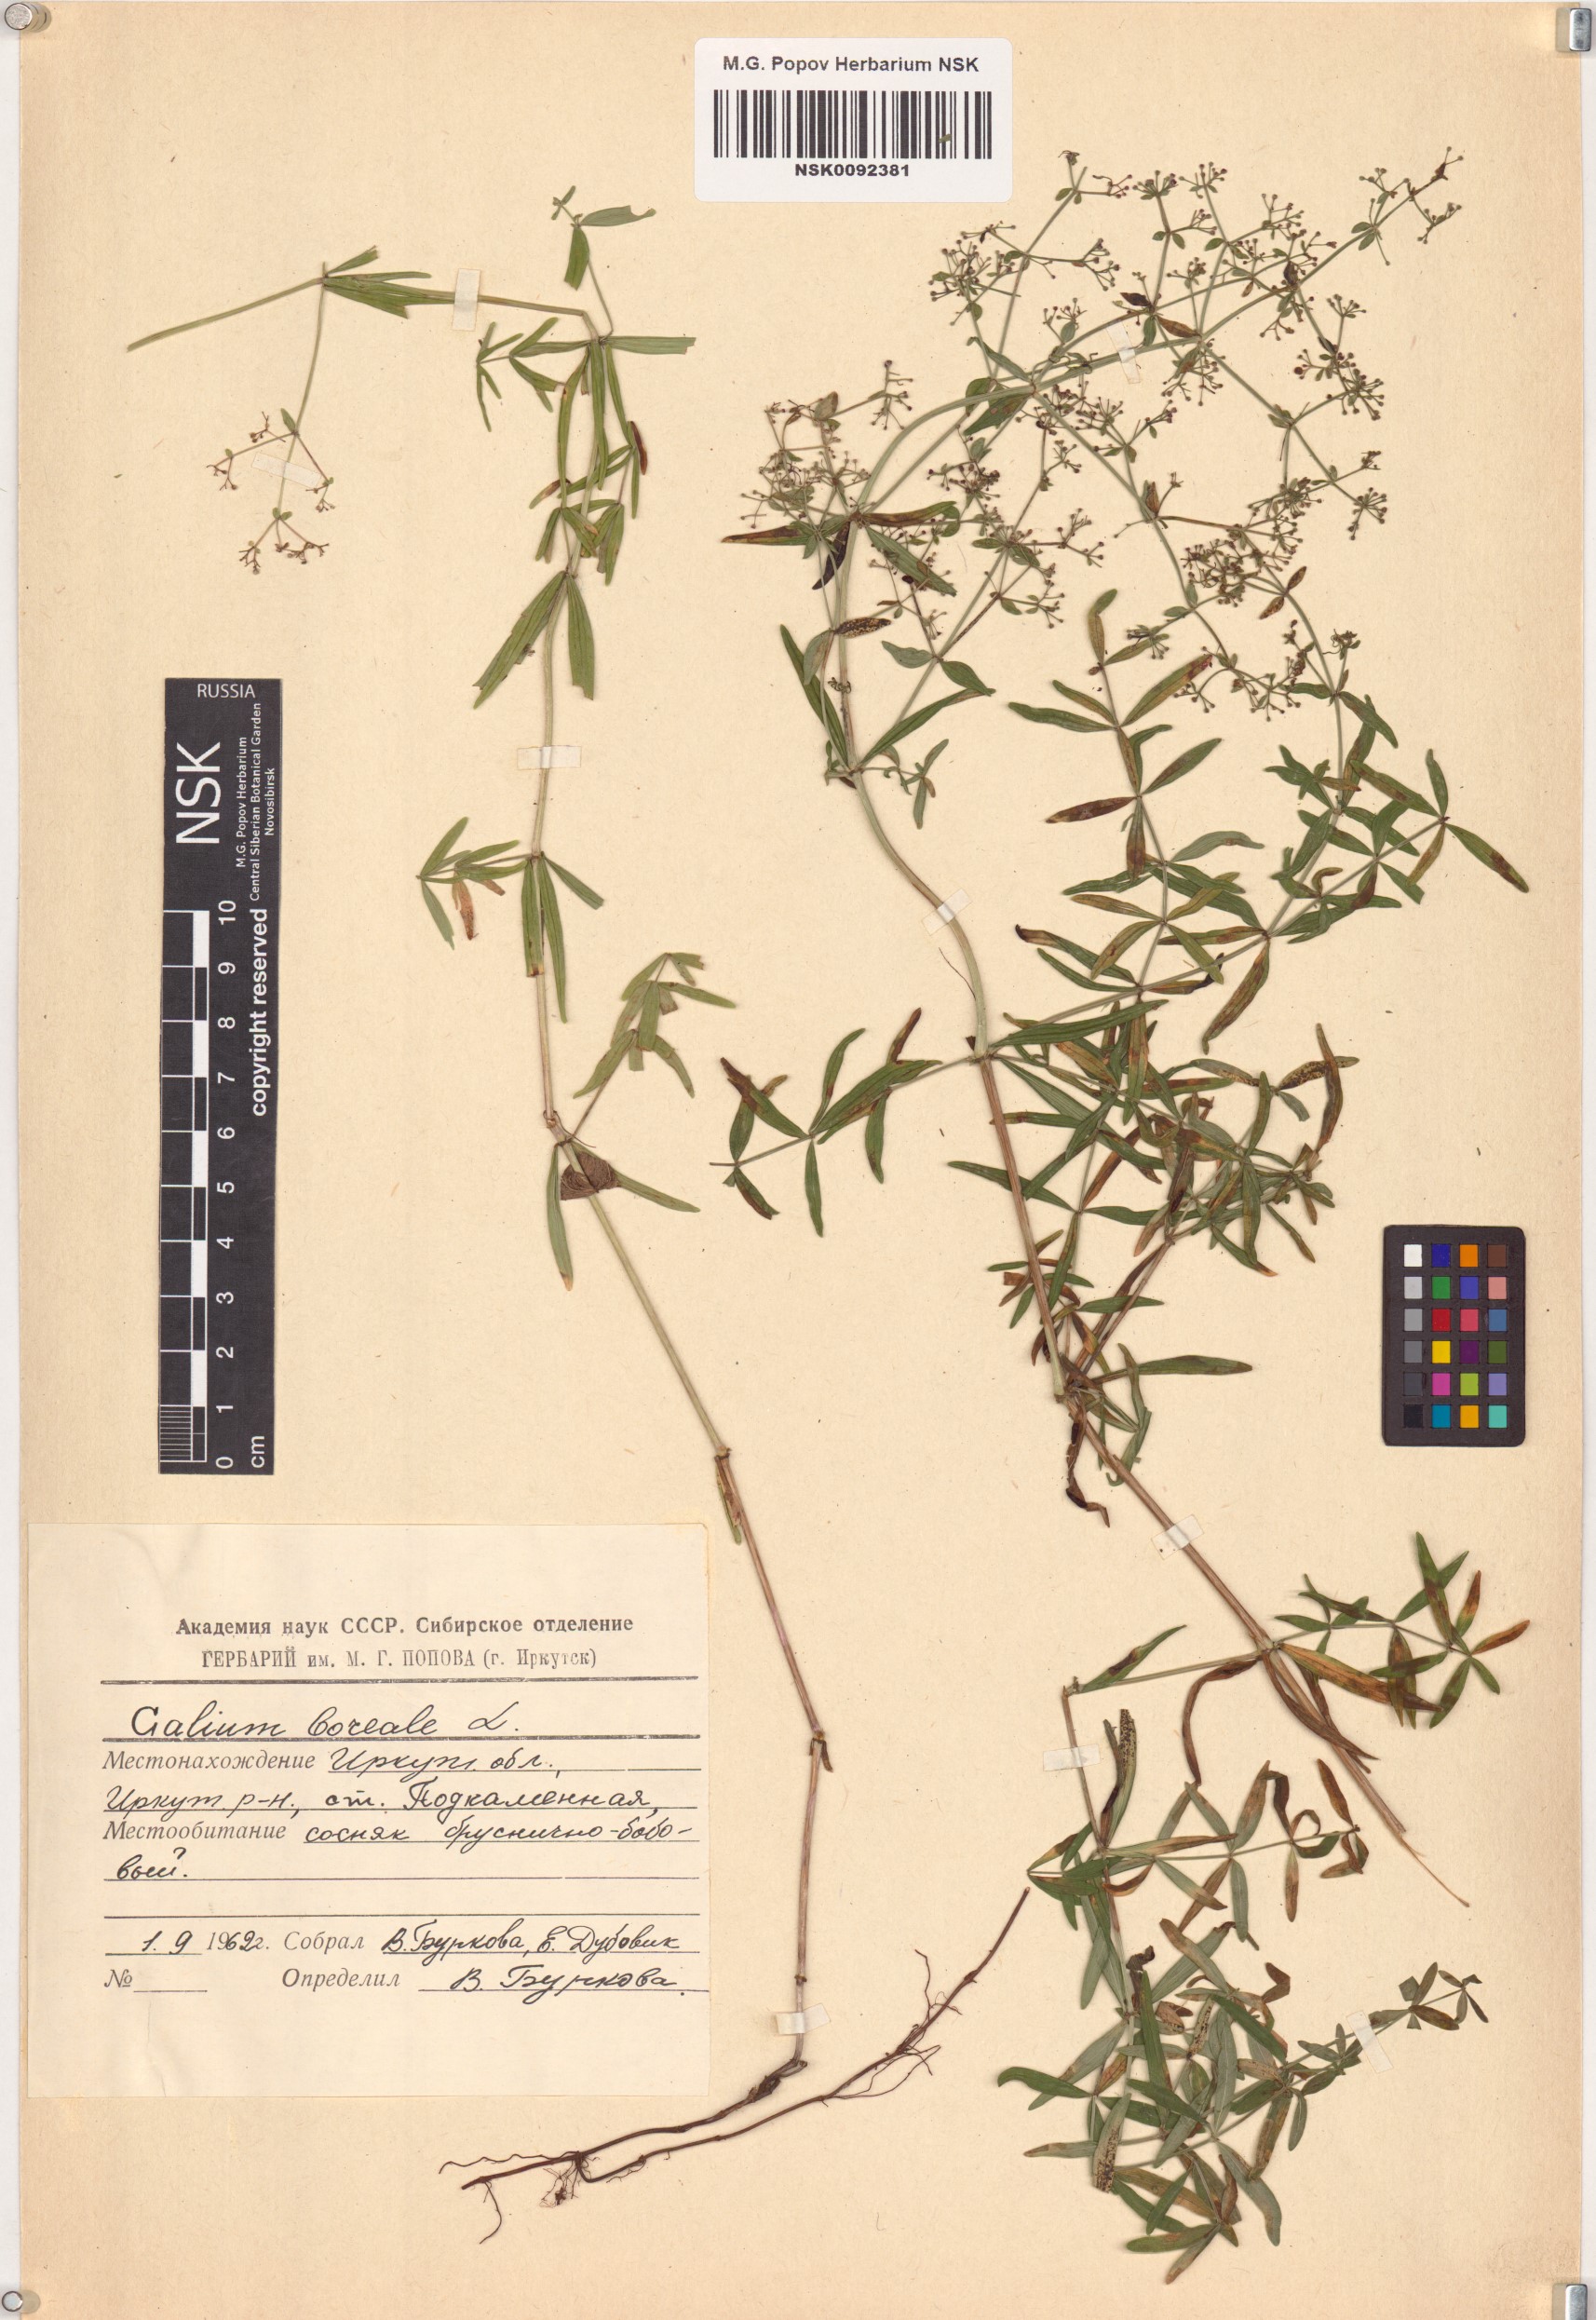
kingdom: Plantae
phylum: Tracheophyta
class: Magnoliopsida
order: Gentianales
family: Rubiaceae
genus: Galium
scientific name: Galium boreale
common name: Northern bedstraw
